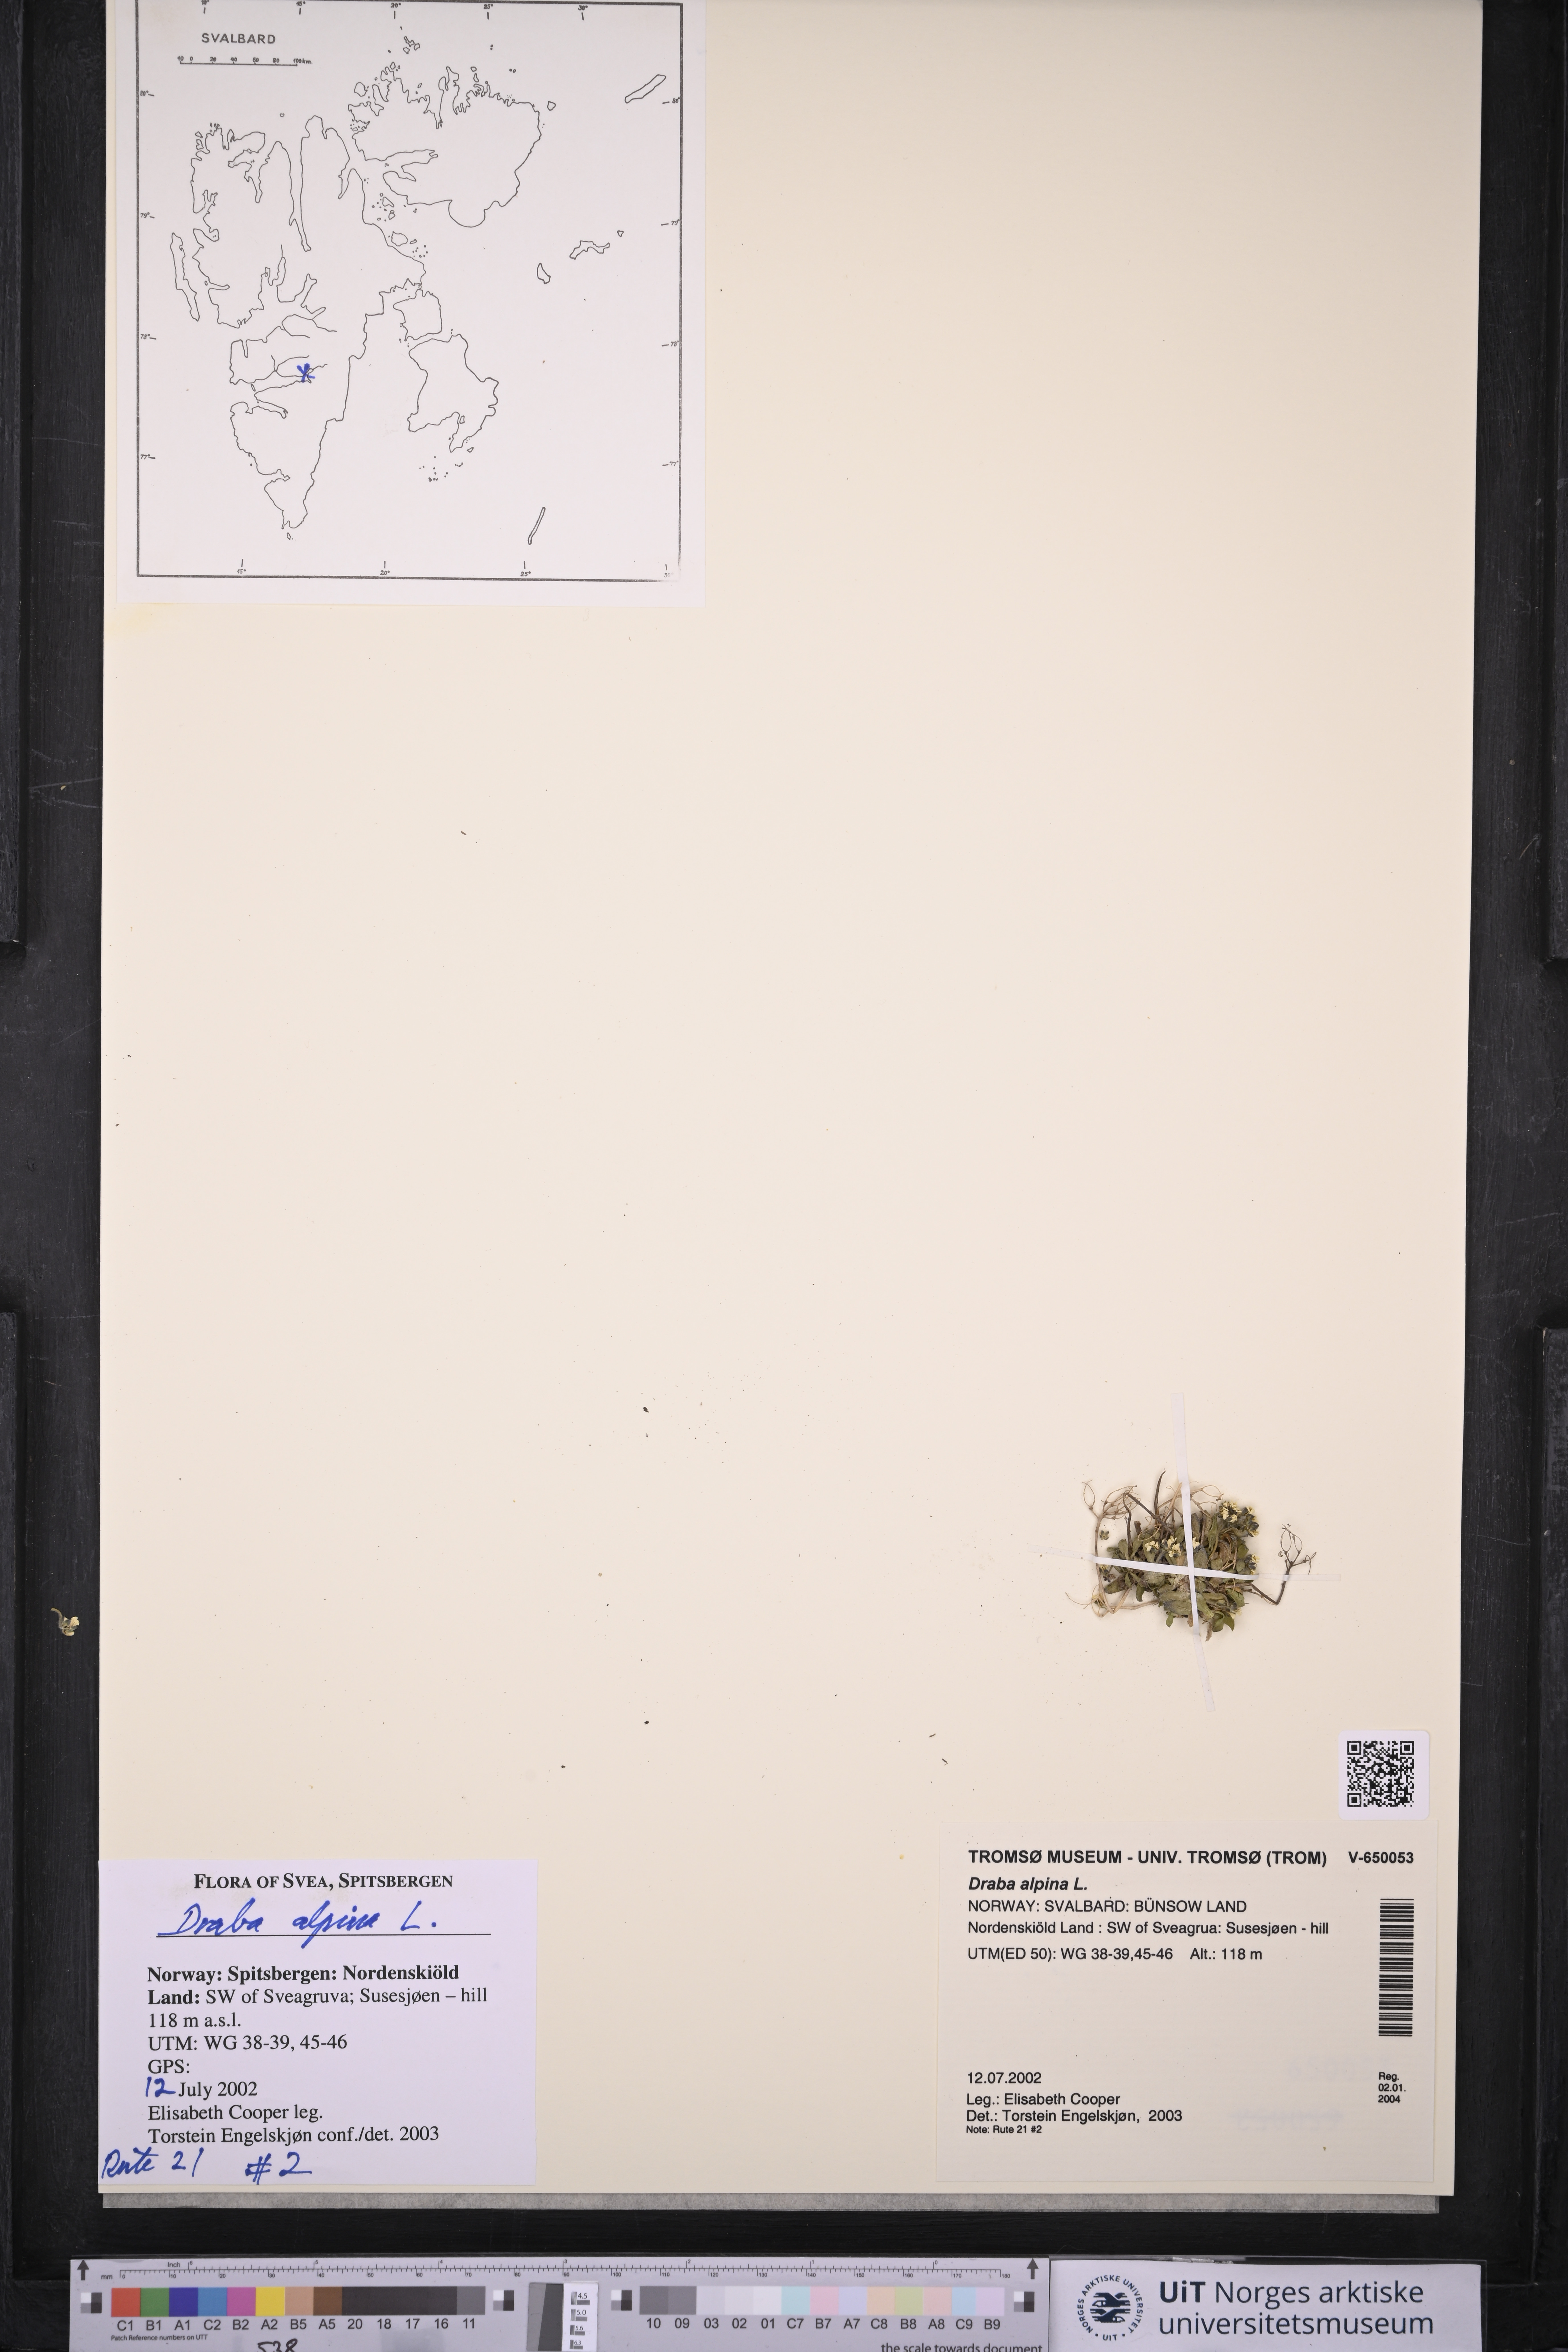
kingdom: Plantae
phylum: Tracheophyta
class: Magnoliopsida
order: Brassicales
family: Brassicaceae
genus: Draba
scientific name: Draba alpina
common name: Alpine draba
